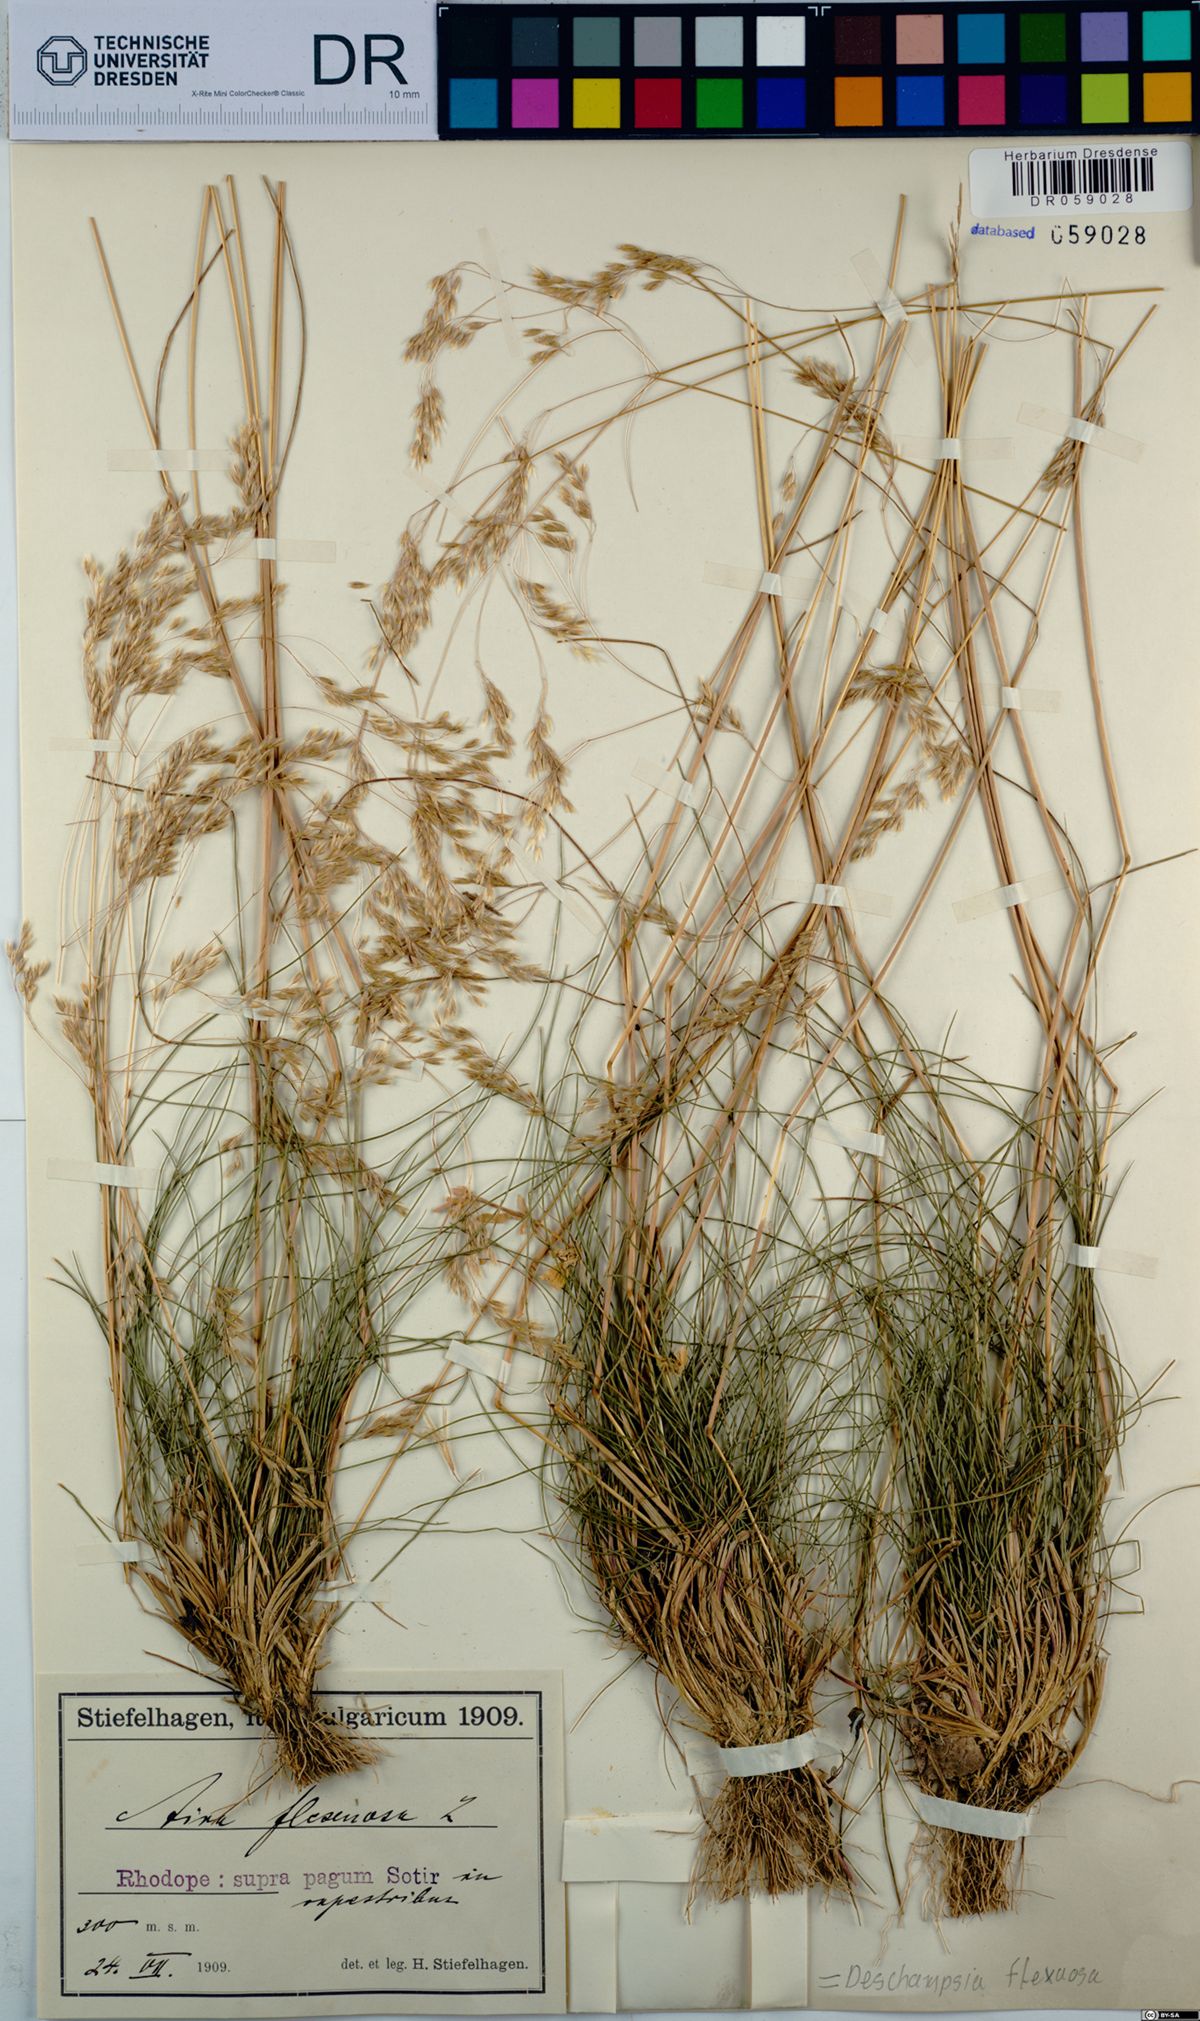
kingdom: Plantae
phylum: Tracheophyta
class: Liliopsida
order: Poales
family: Poaceae
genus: Avenella
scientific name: Avenella flexuosa
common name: Wavy hairgrass
